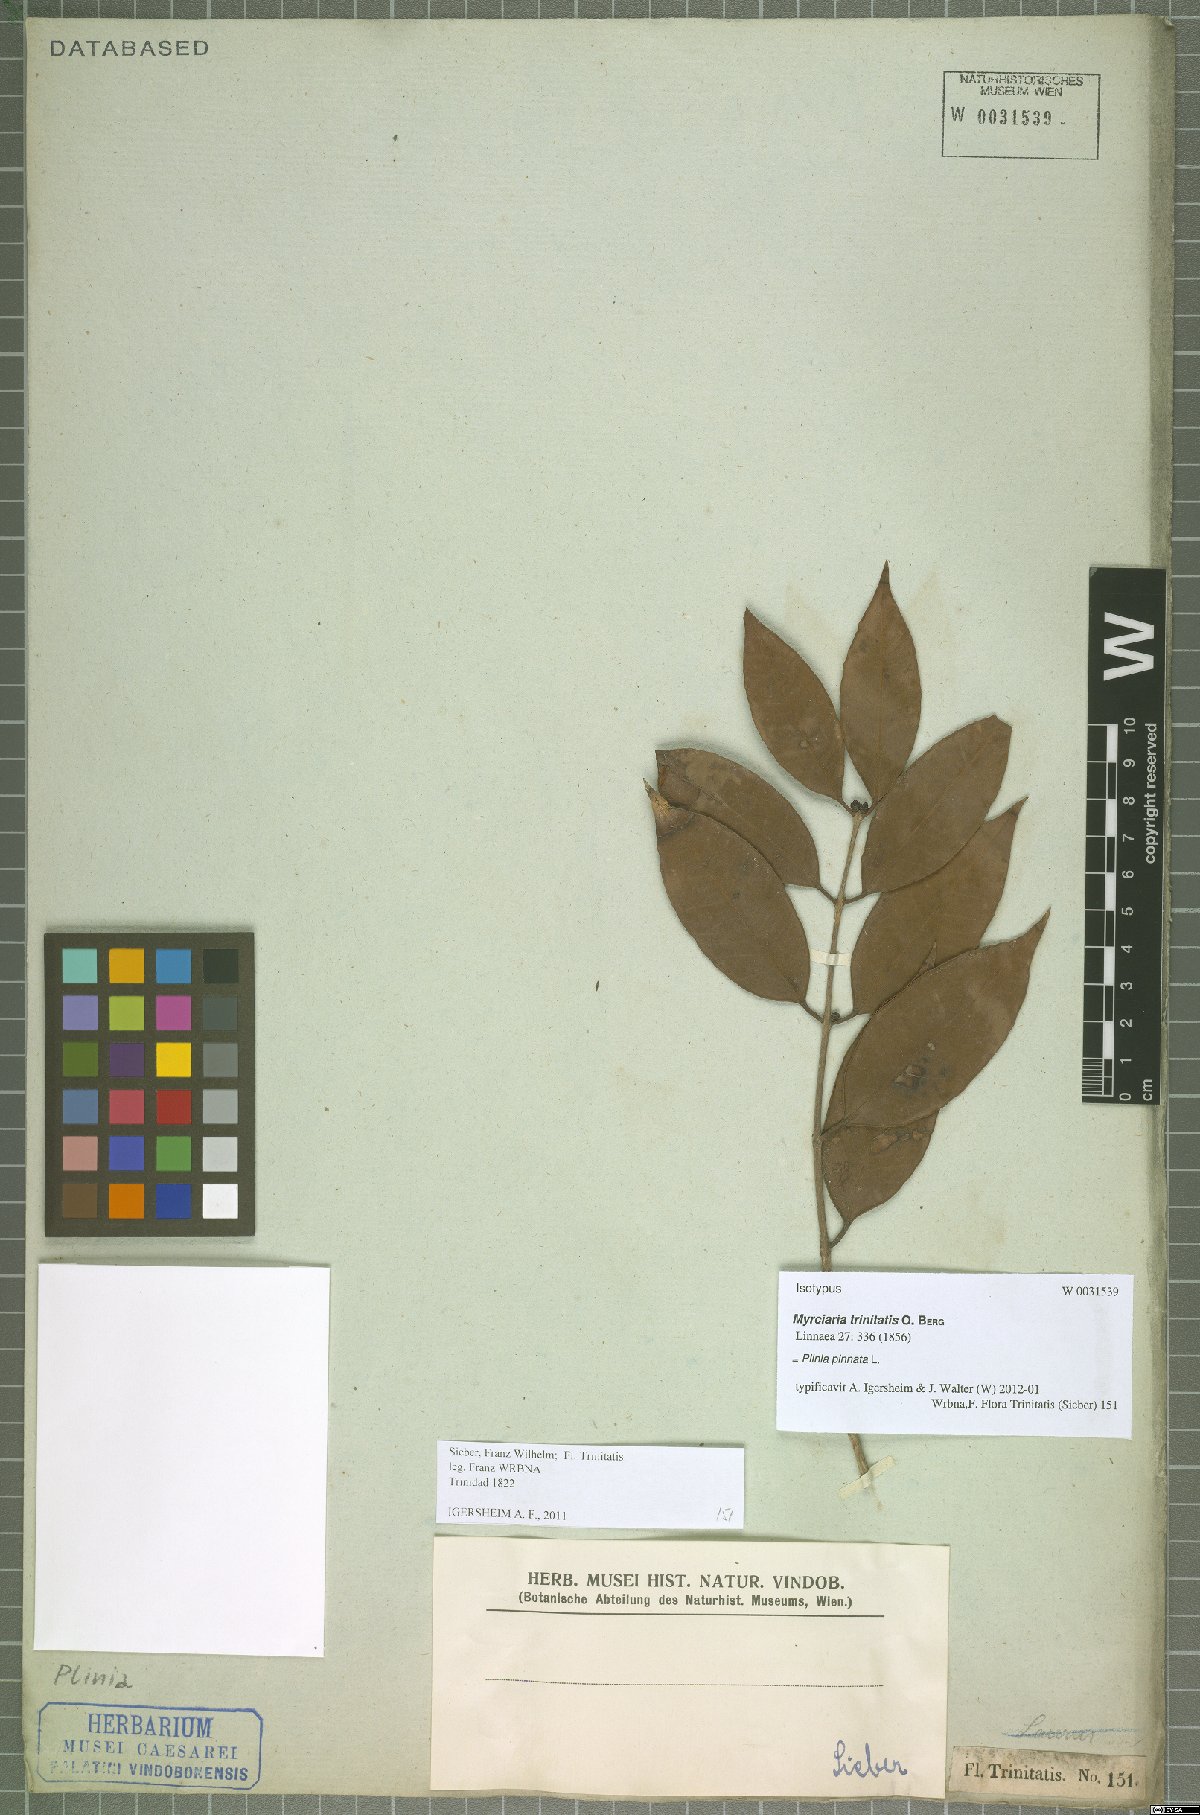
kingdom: Plantae
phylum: Tracheophyta
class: Magnoliopsida
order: Myrtales
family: Myrtaceae
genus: Plinia
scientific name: Plinia pinnata
